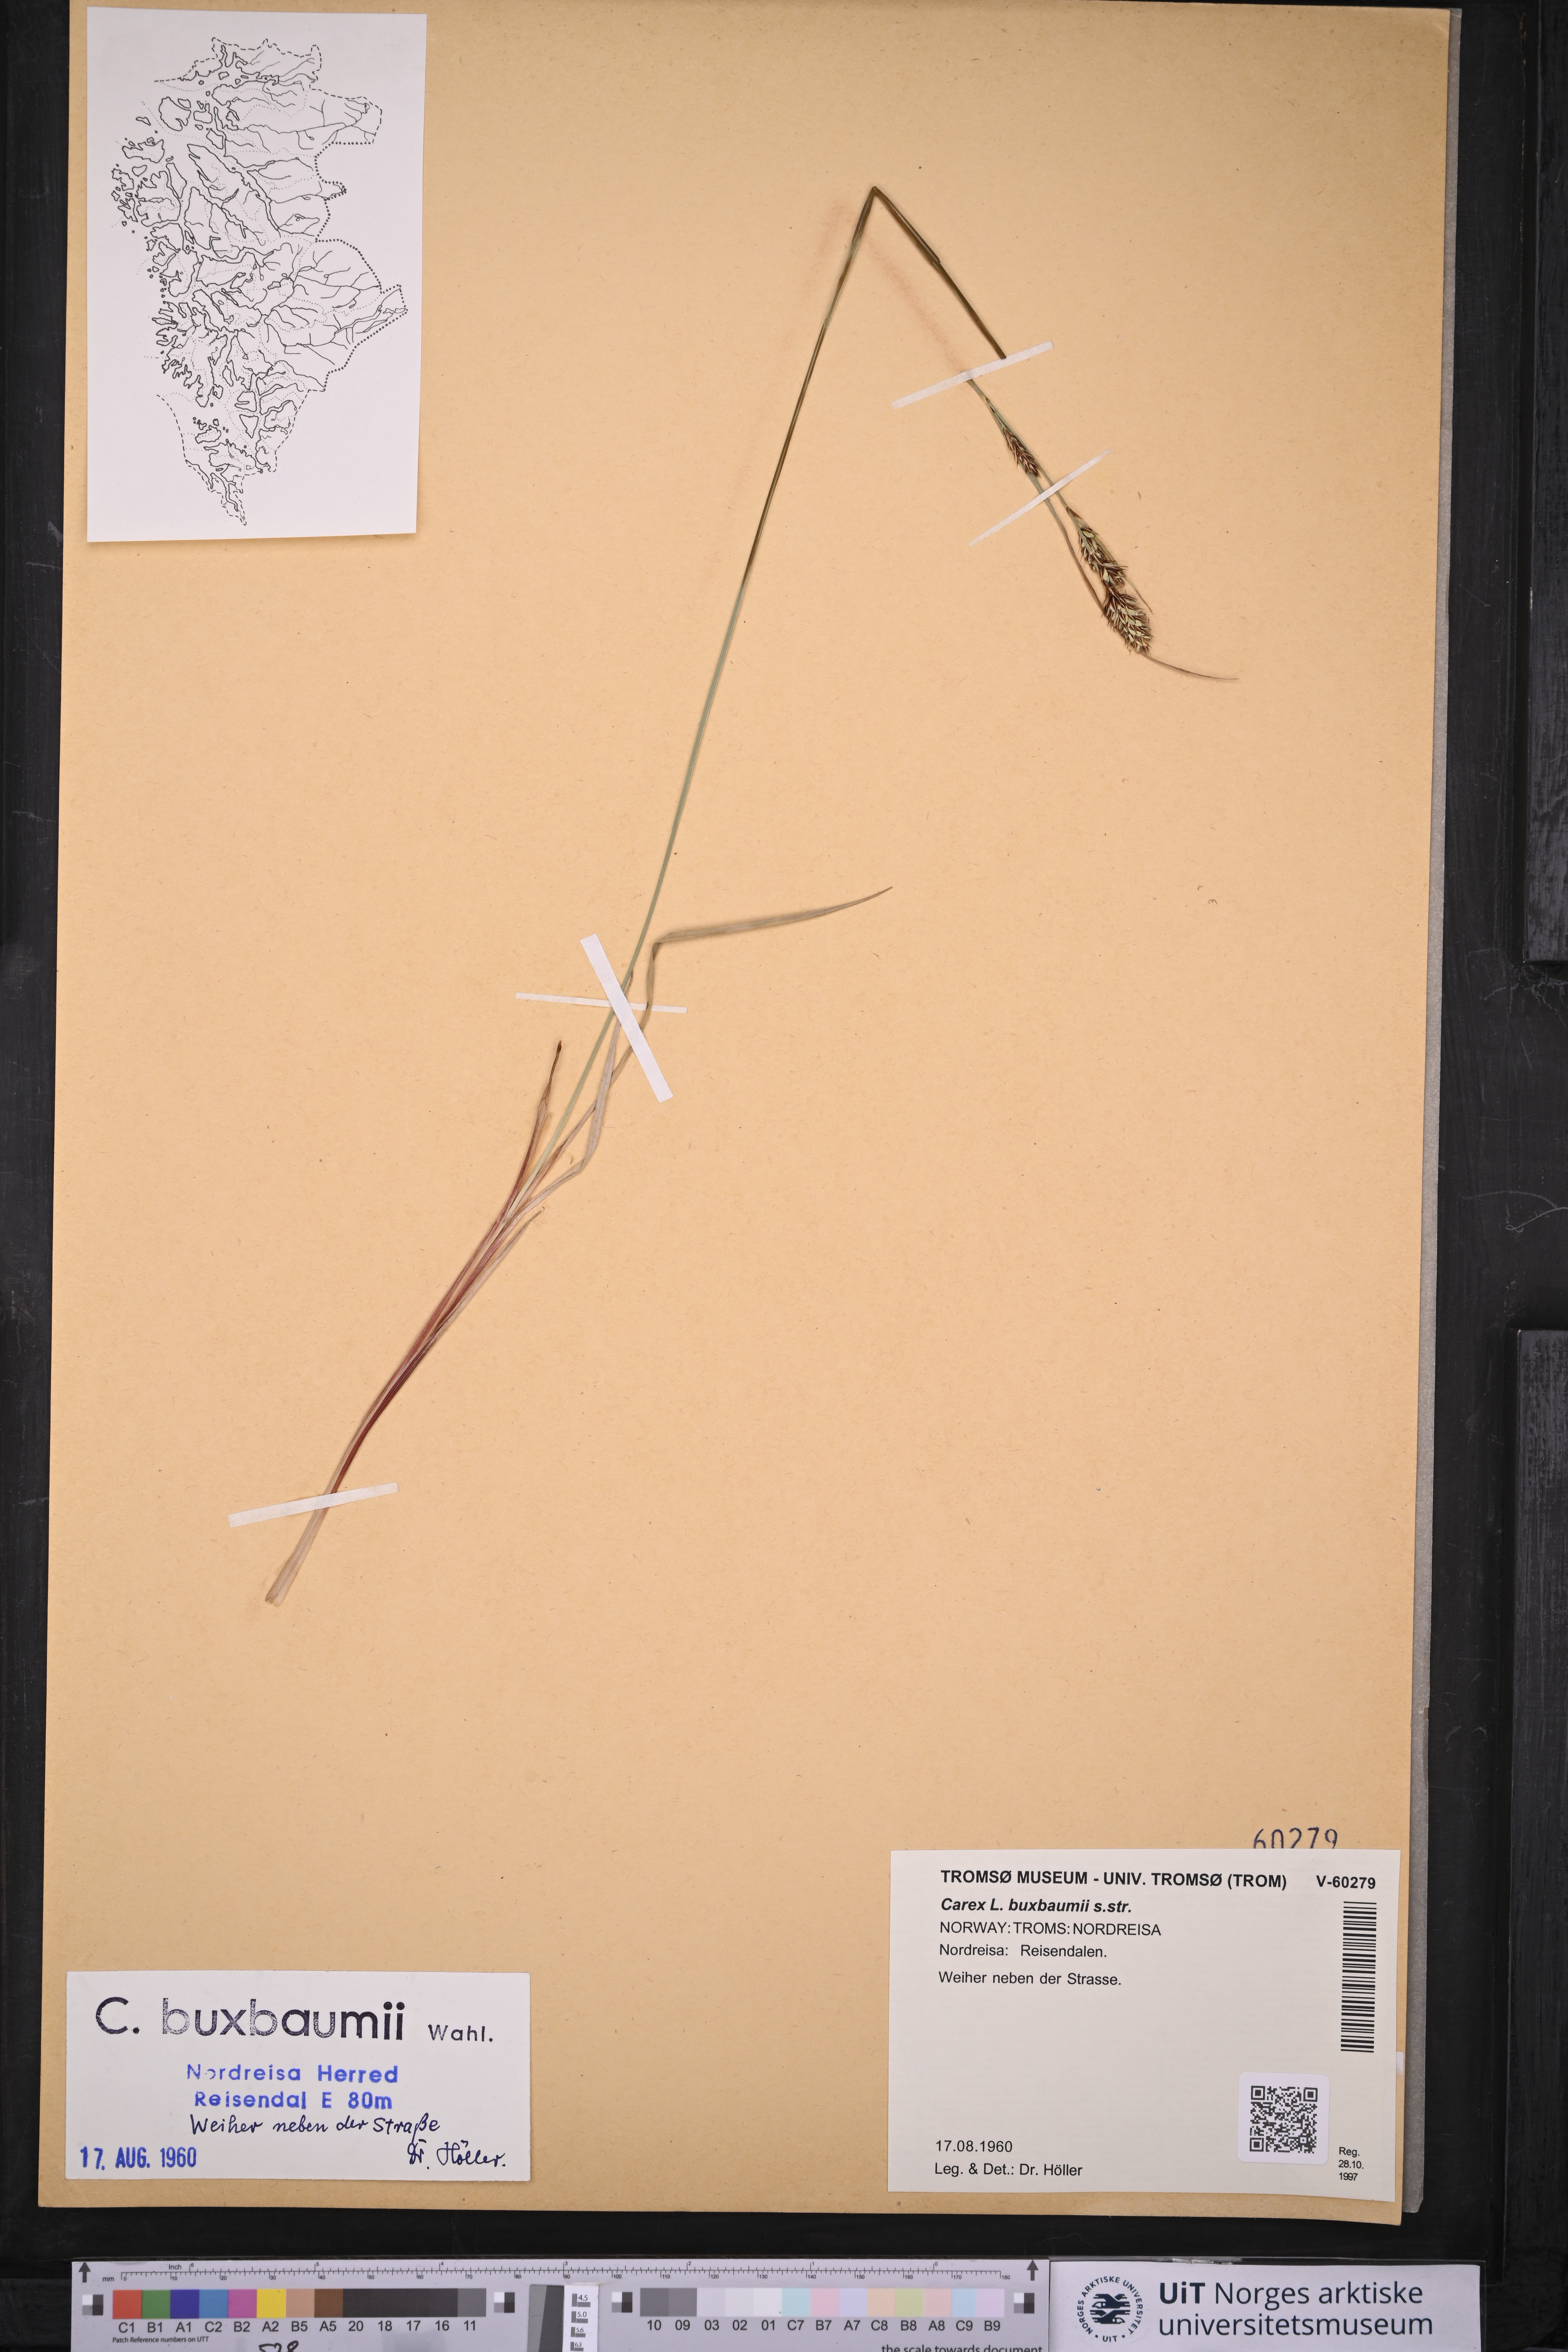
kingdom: Plantae
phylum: Tracheophyta
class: Liliopsida
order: Poales
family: Cyperaceae
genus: Carex
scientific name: Carex buxbaumii
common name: Club sedge
